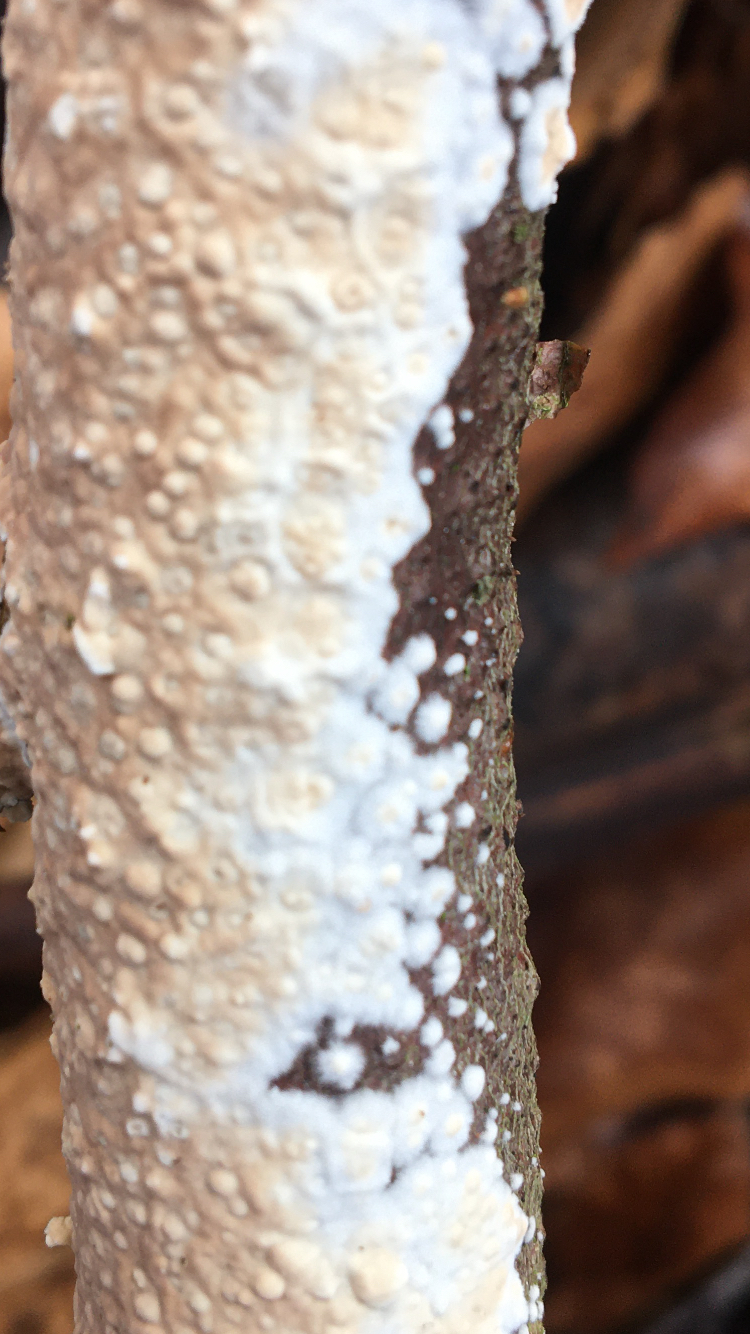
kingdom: Fungi
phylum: Basidiomycota
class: Agaricomycetes
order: Agaricales
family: Physalacriaceae
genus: Cylindrobasidium
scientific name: Cylindrobasidium evolvens
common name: sprækkehinde
